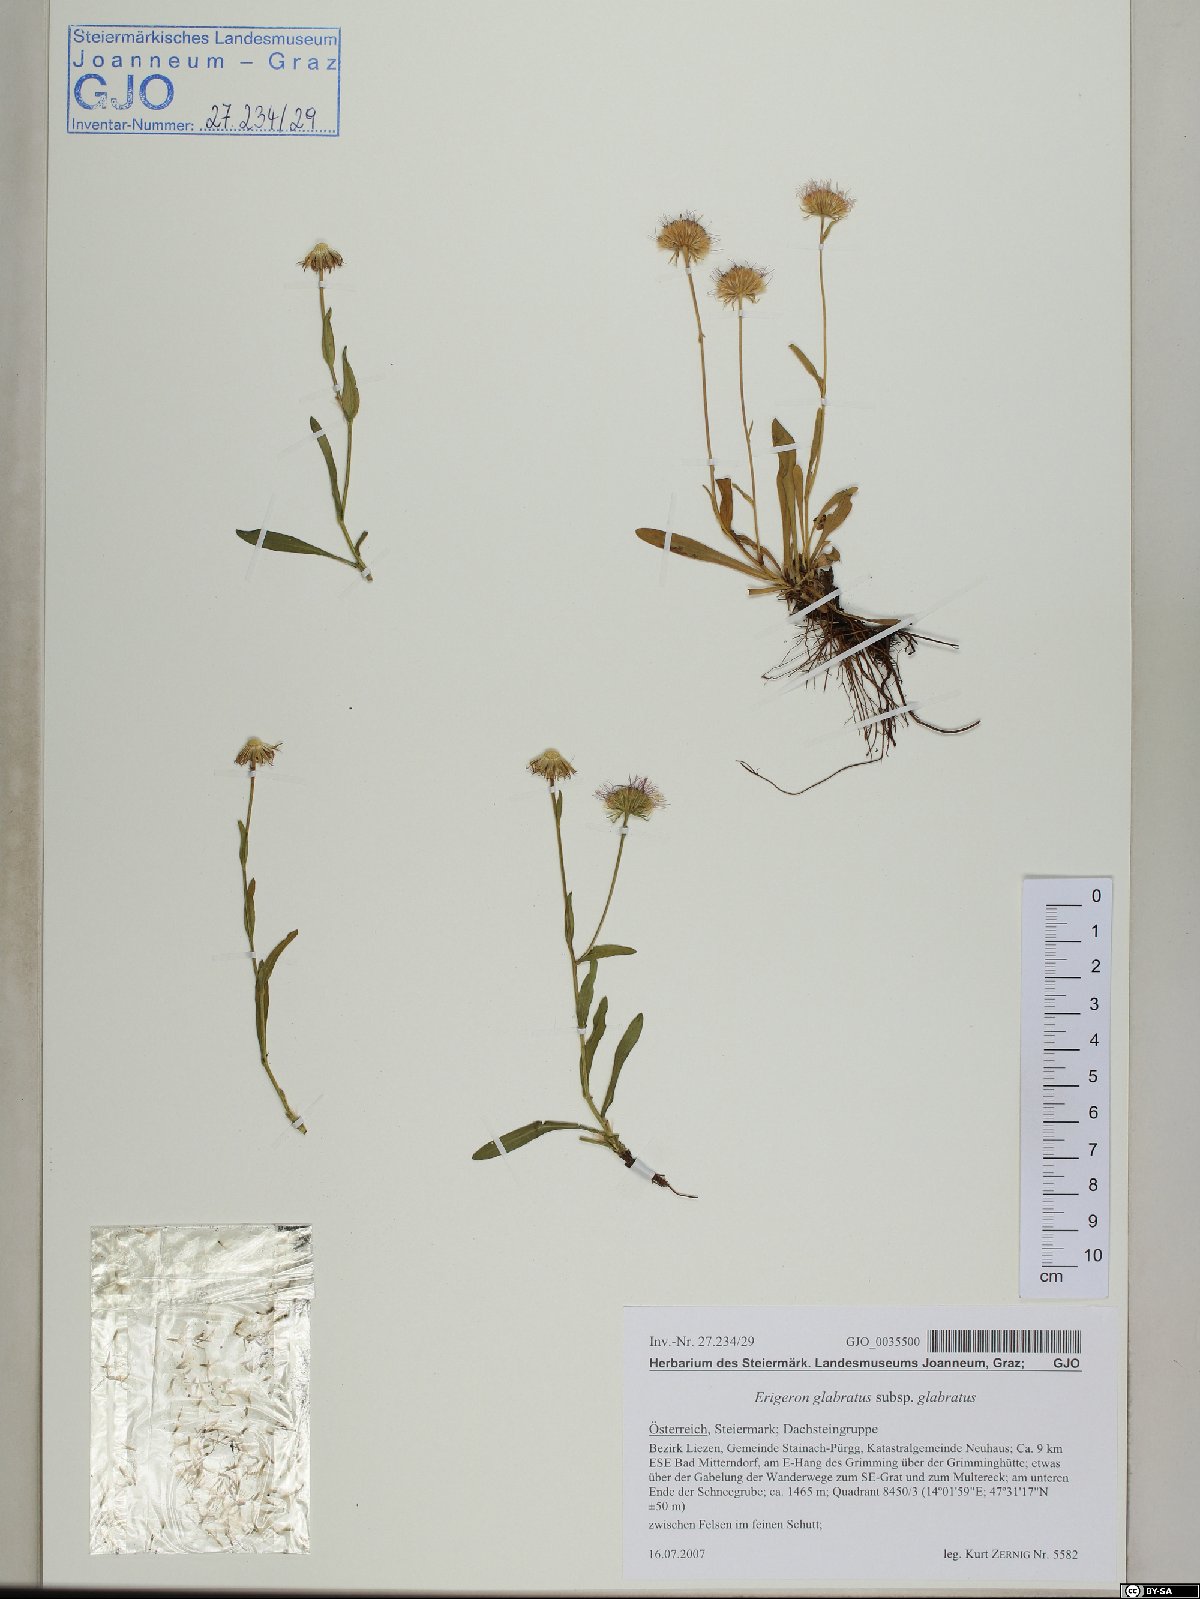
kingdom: Plantae
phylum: Tracheophyta
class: Magnoliopsida
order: Asterales
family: Asteraceae
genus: Erigeron
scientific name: Erigeron glabratus
